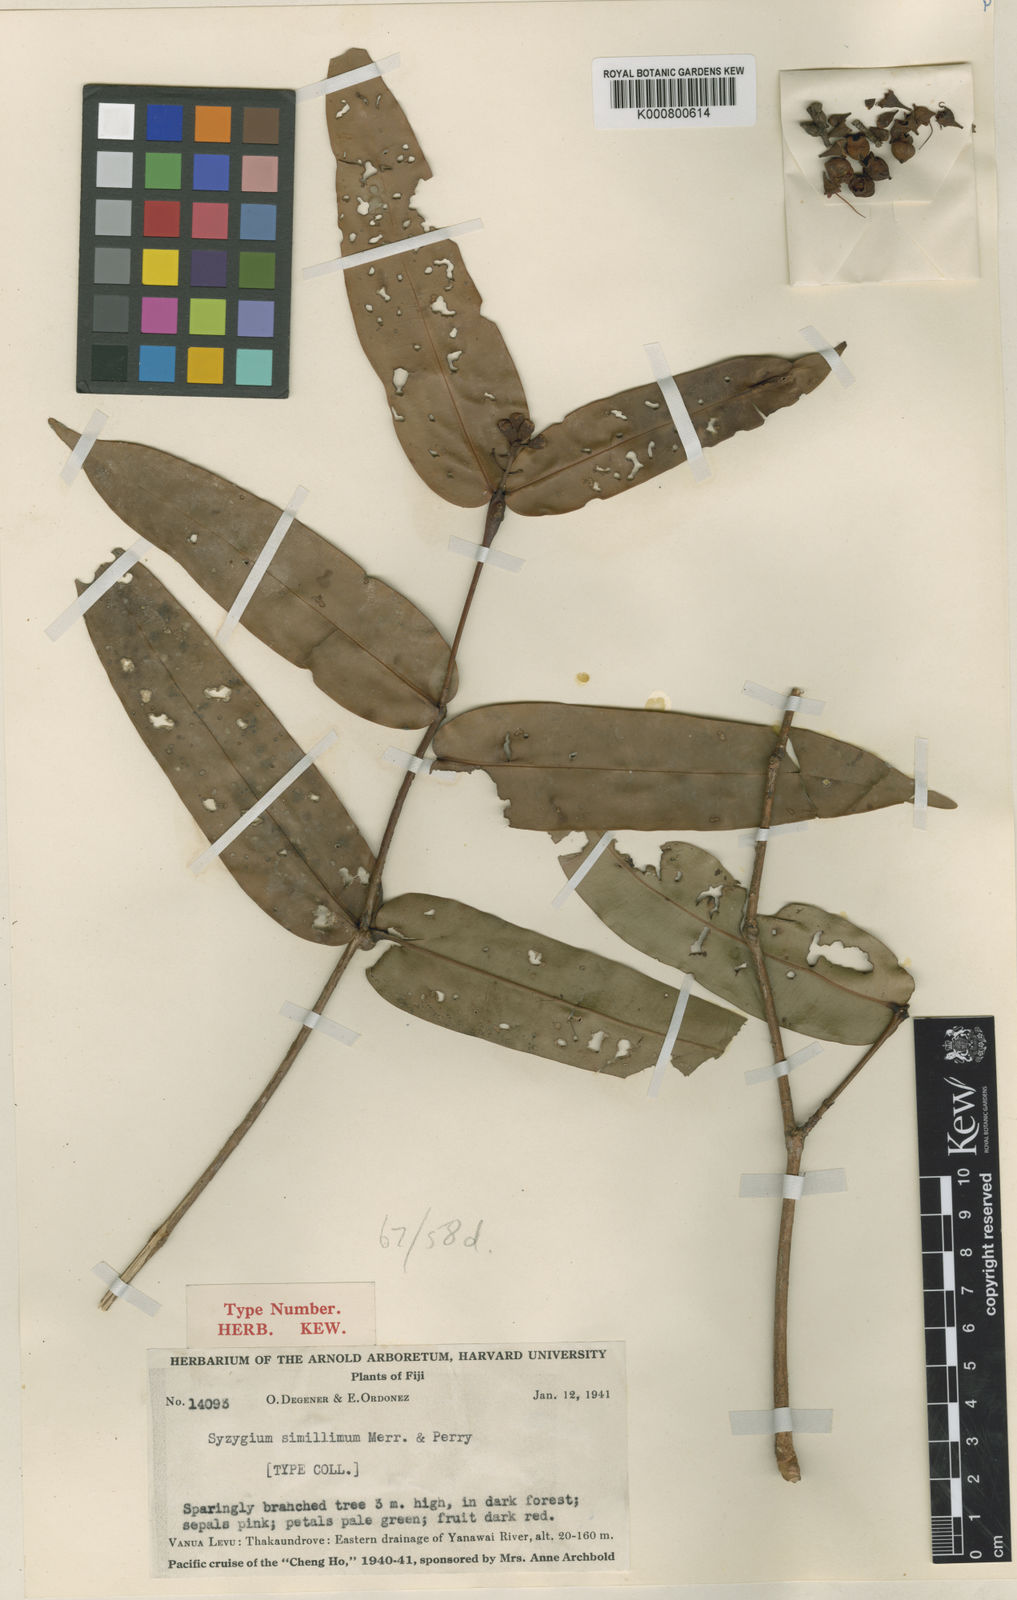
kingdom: Plantae
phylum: Tracheophyta
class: Magnoliopsida
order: Myrtales
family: Myrtaceae
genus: Syzygium
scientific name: Syzygium simillimum
